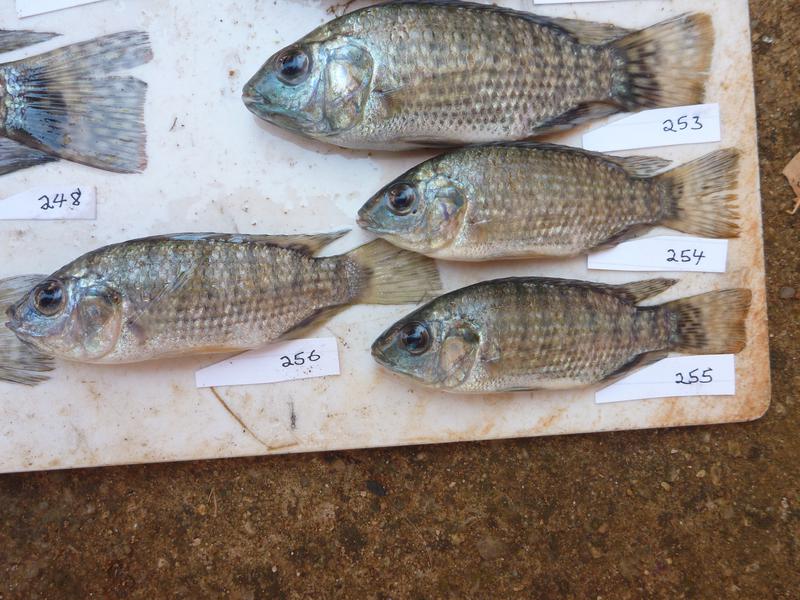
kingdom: Animalia
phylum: Chordata
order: Perciformes
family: Cichlidae
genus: Oreochromis
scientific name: Oreochromis leucostictus
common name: Blue spotted tilapia
